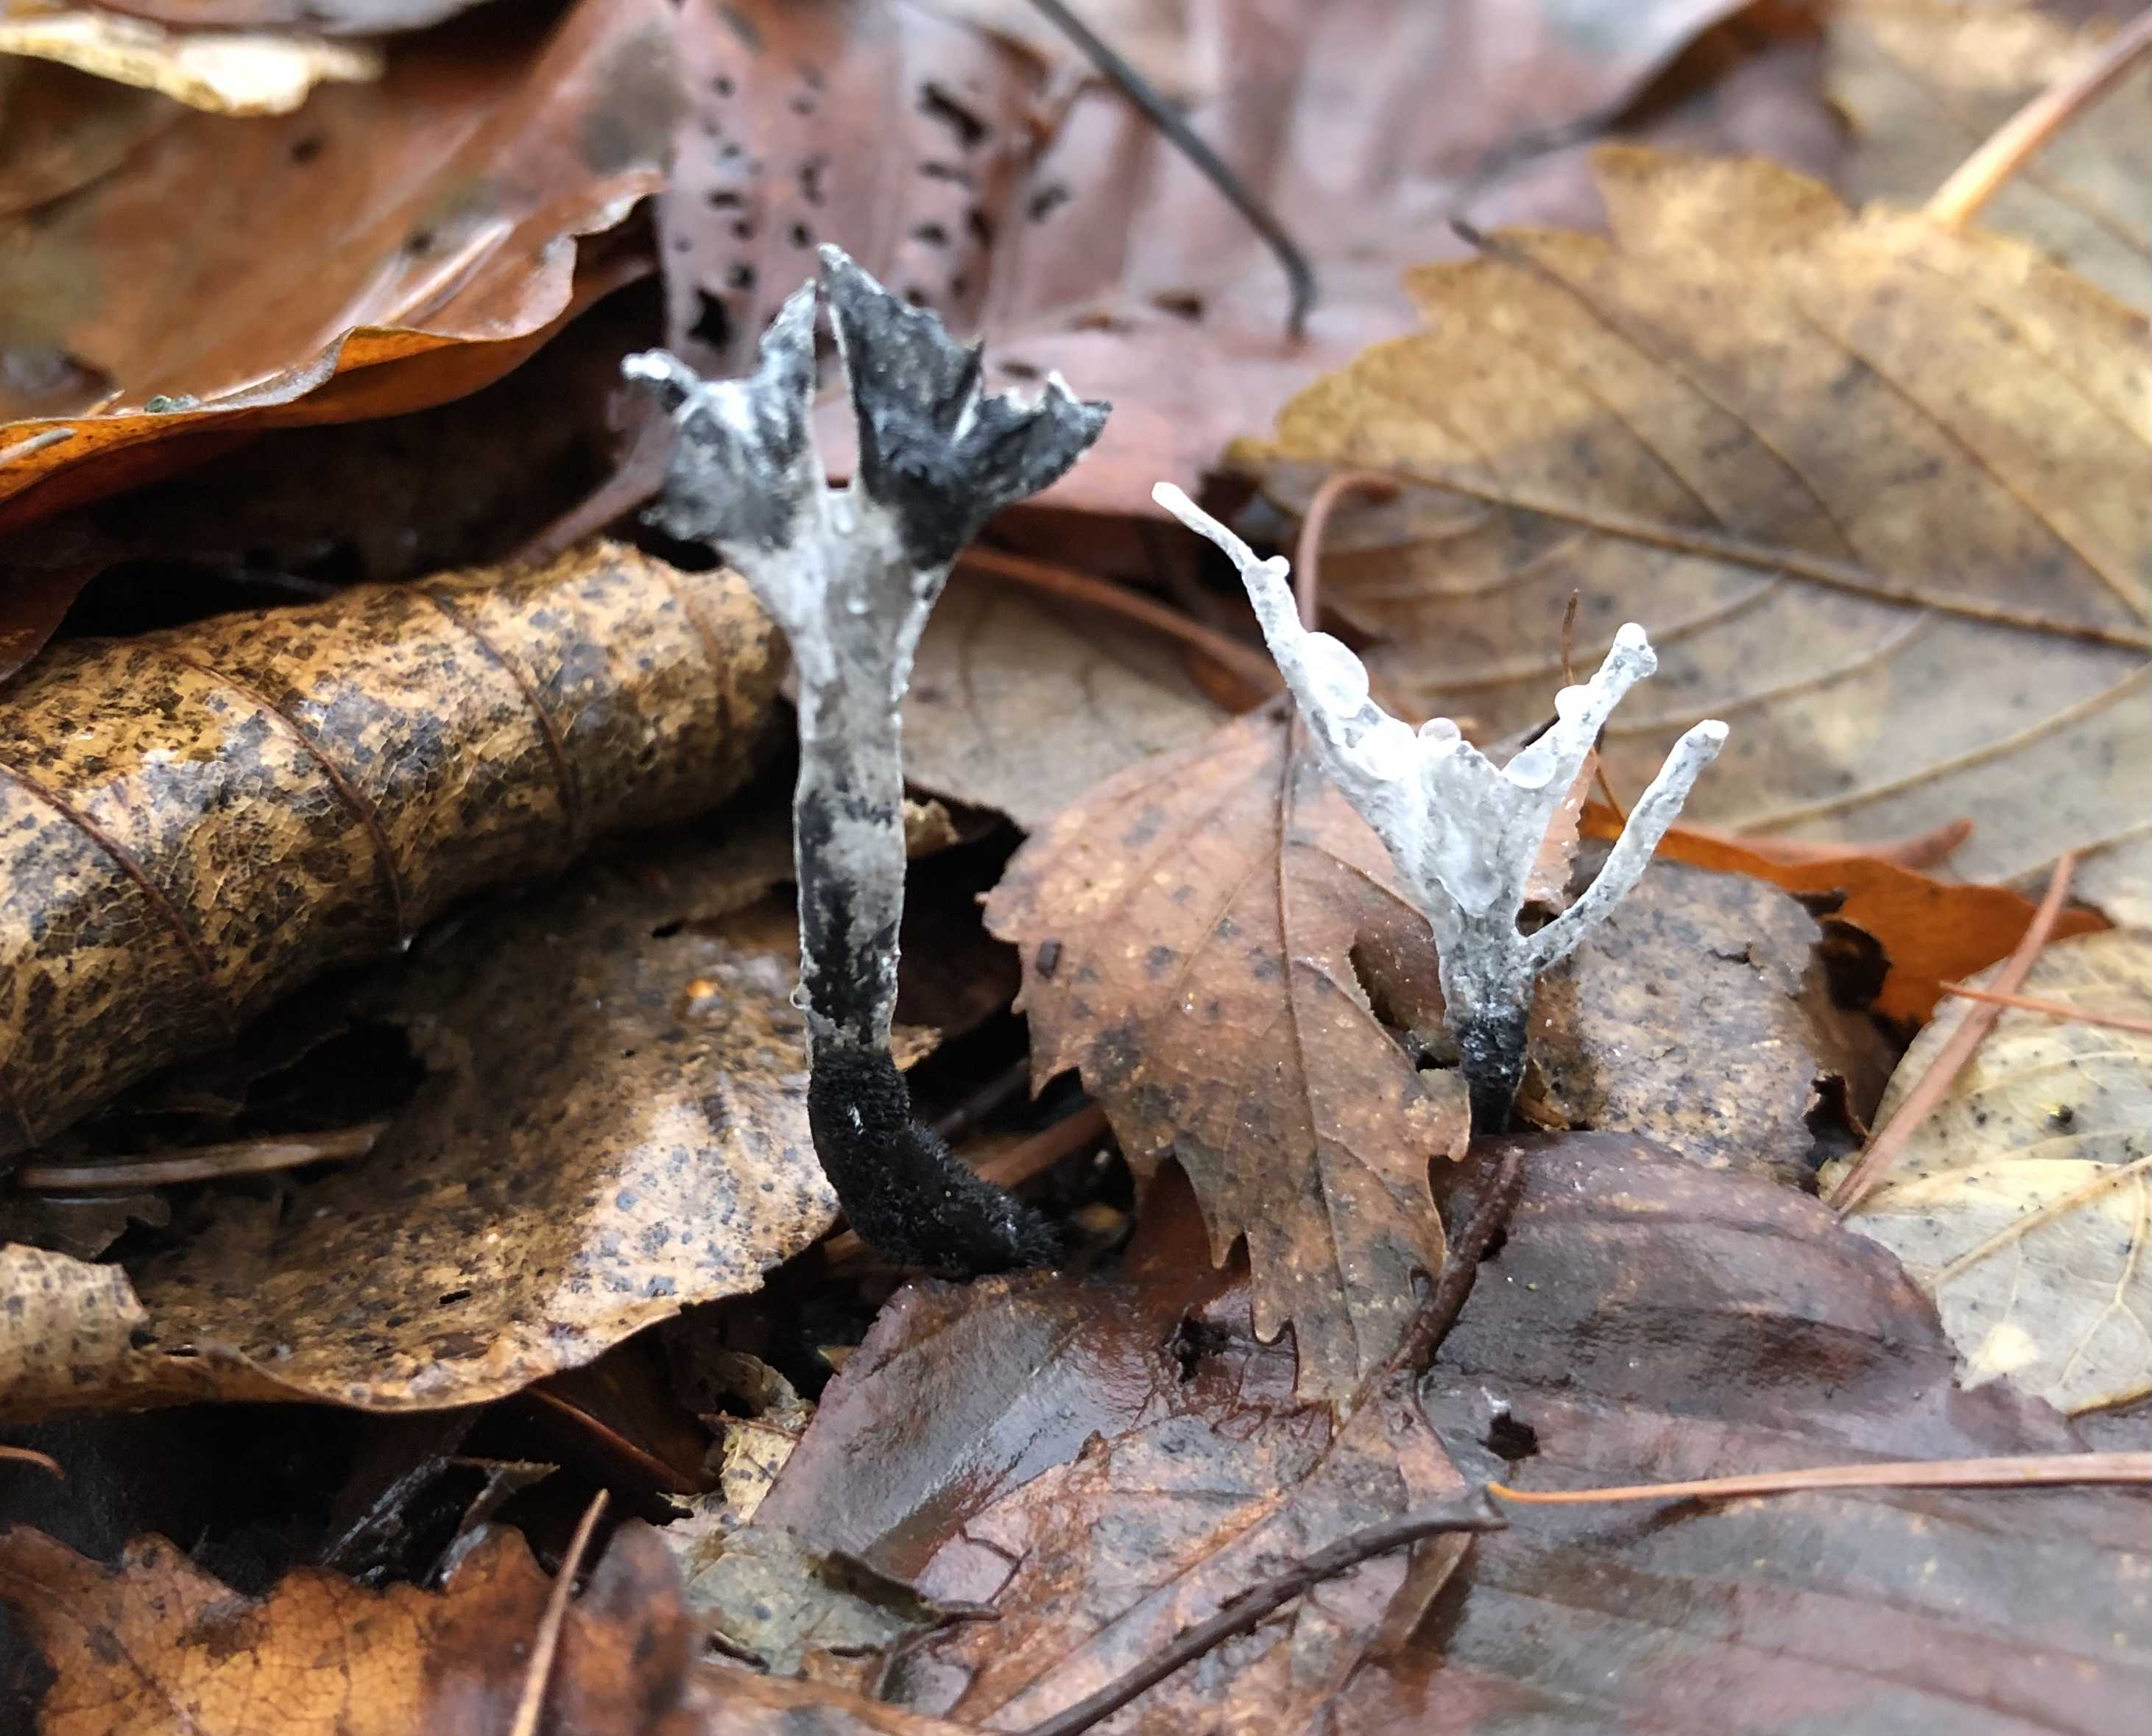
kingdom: Fungi
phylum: Ascomycota
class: Sordariomycetes
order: Xylariales
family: Xylariaceae
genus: Xylaria
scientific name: Xylaria hypoxylon
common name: grenet stødsvamp
